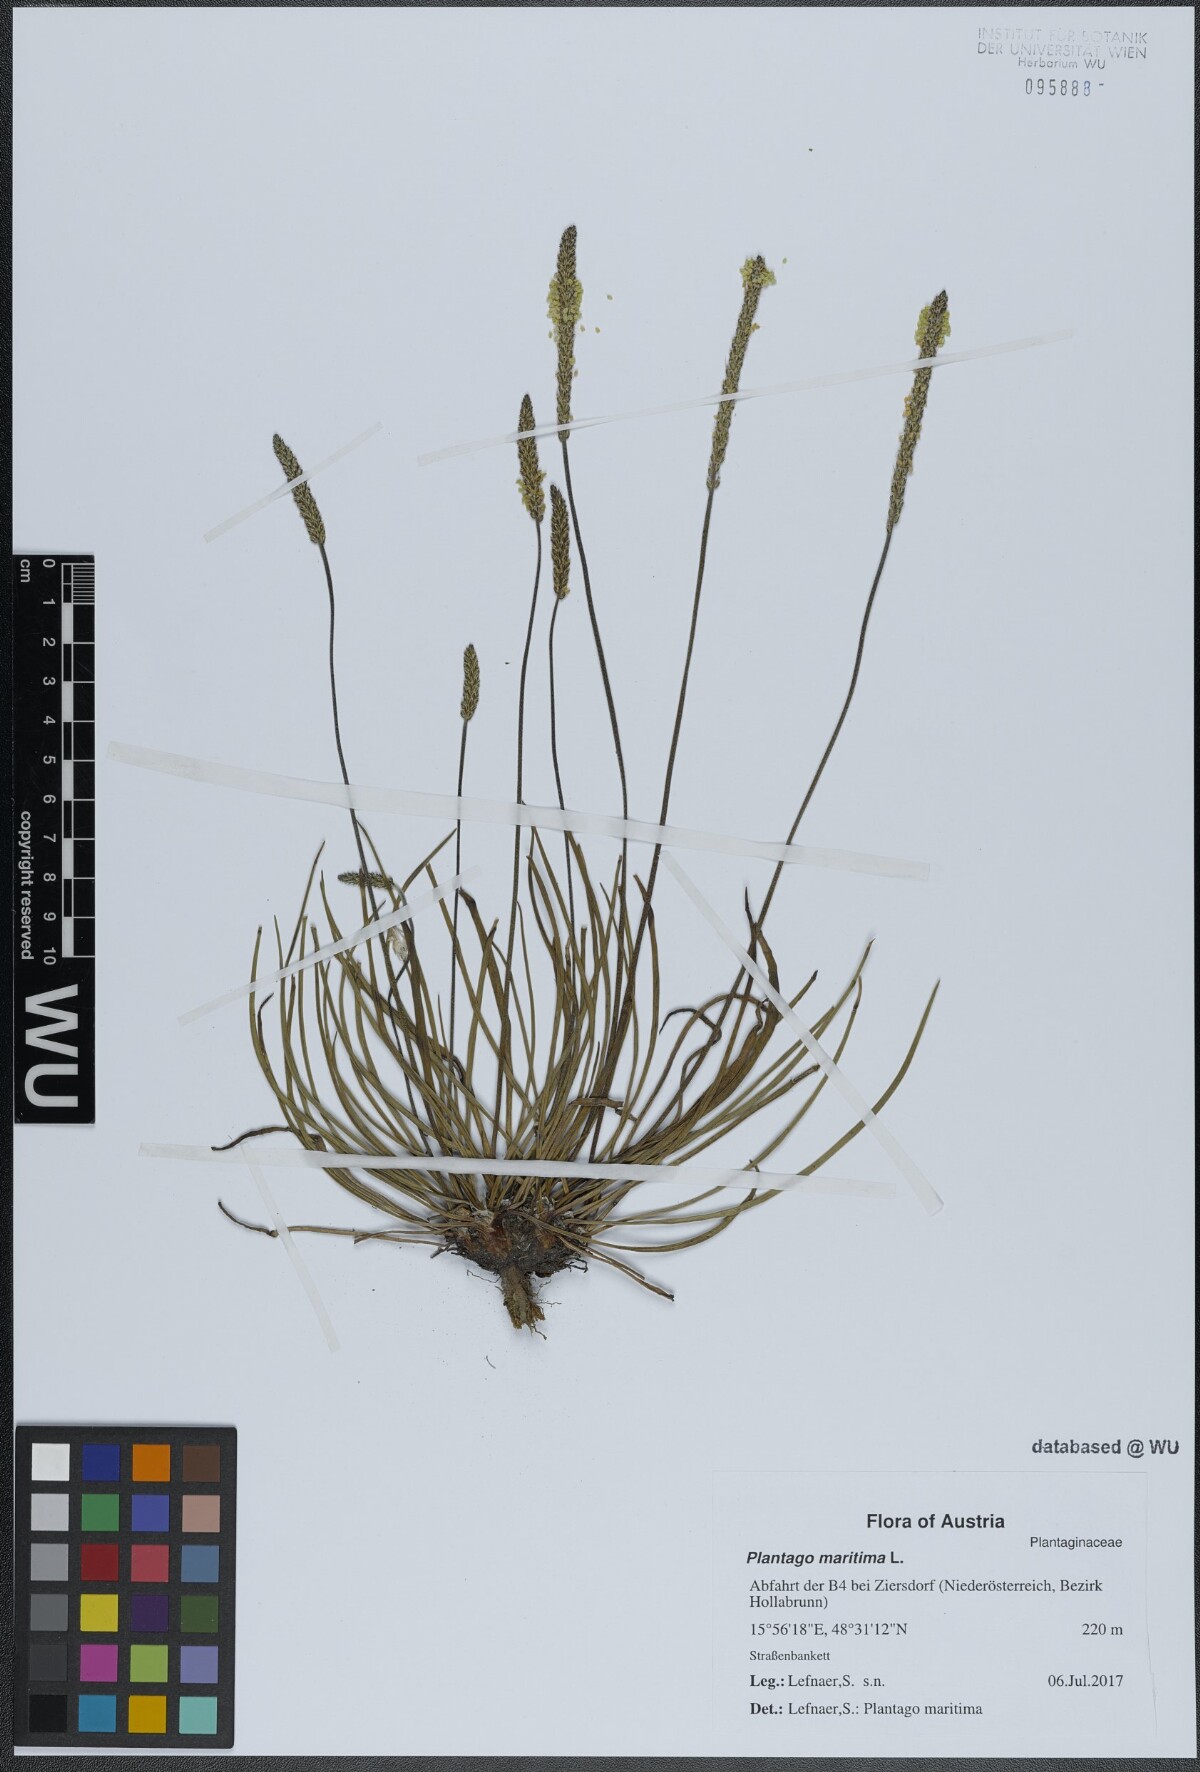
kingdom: Plantae
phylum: Tracheophyta
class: Magnoliopsida
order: Lamiales
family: Plantaginaceae
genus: Plantago
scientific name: Plantago maritima
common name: Sea plantain
